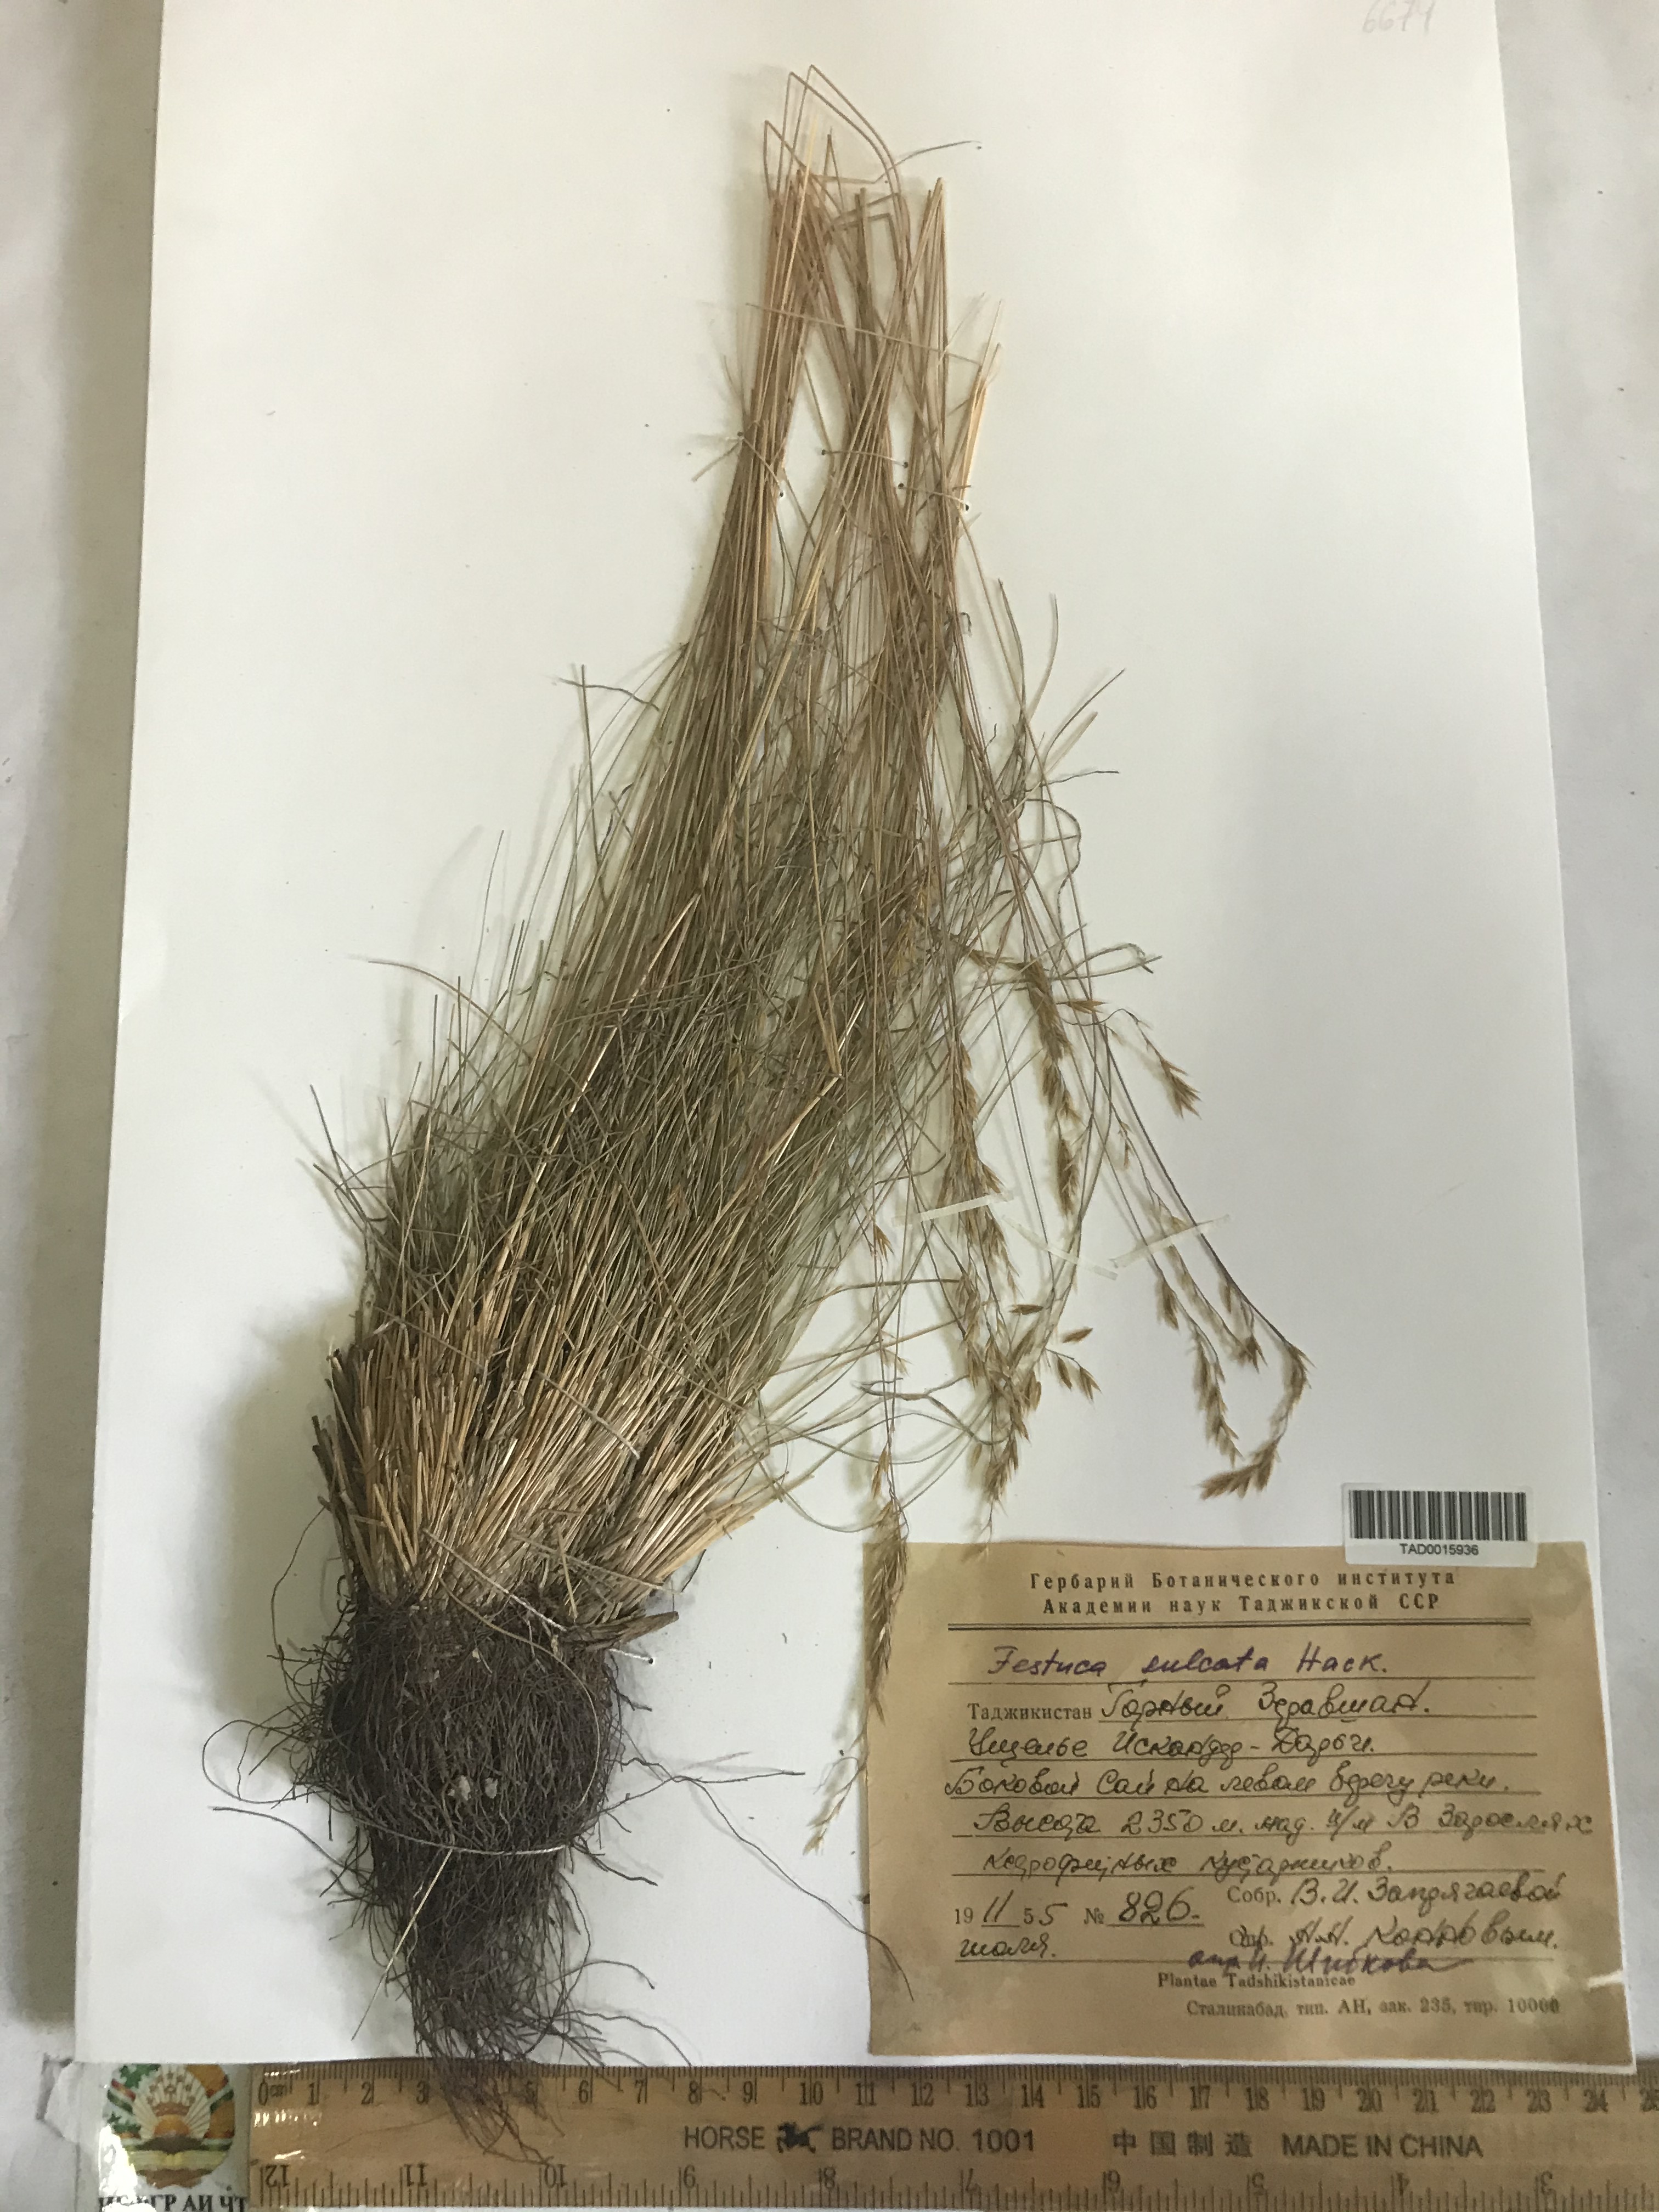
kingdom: Plantae
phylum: Tracheophyta
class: Liliopsida
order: Poales
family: Poaceae
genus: Festuca
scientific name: Festuca sulcata
